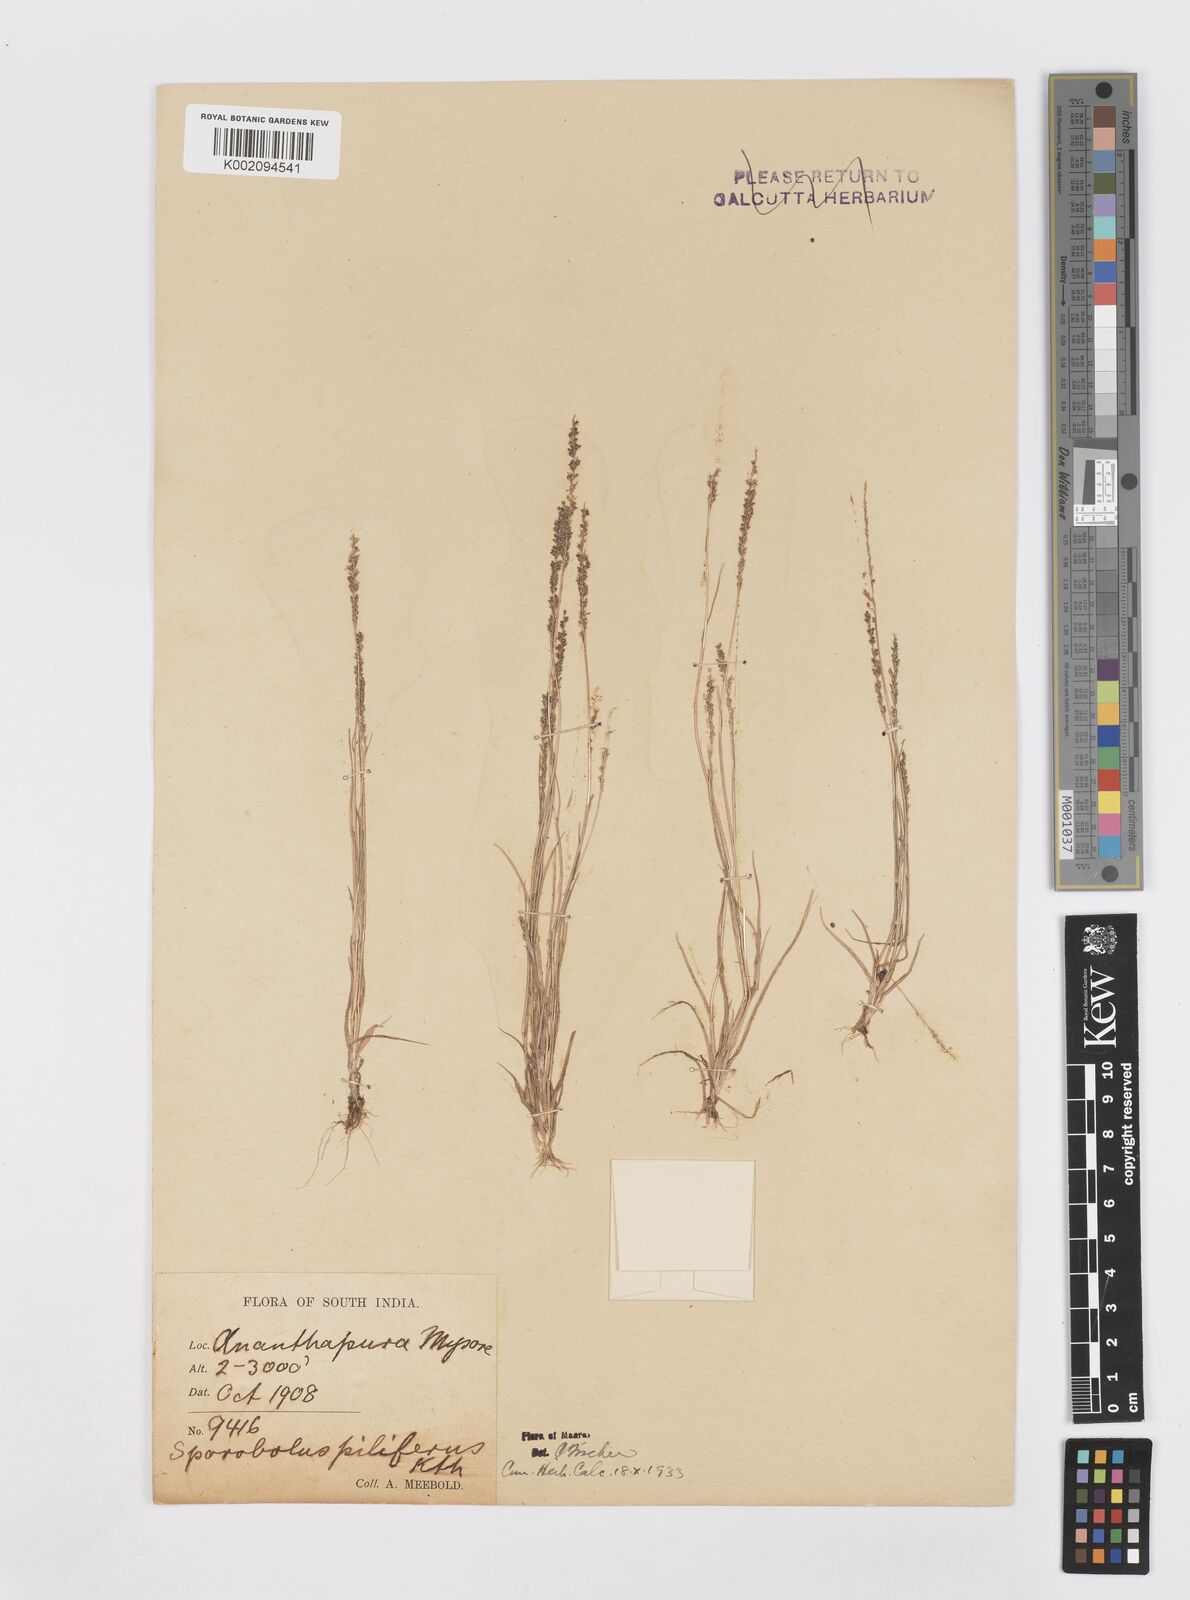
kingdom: Plantae
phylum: Tracheophyta
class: Liliopsida
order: Poales
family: Poaceae
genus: Sporobolus
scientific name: Sporobolus pilifer
